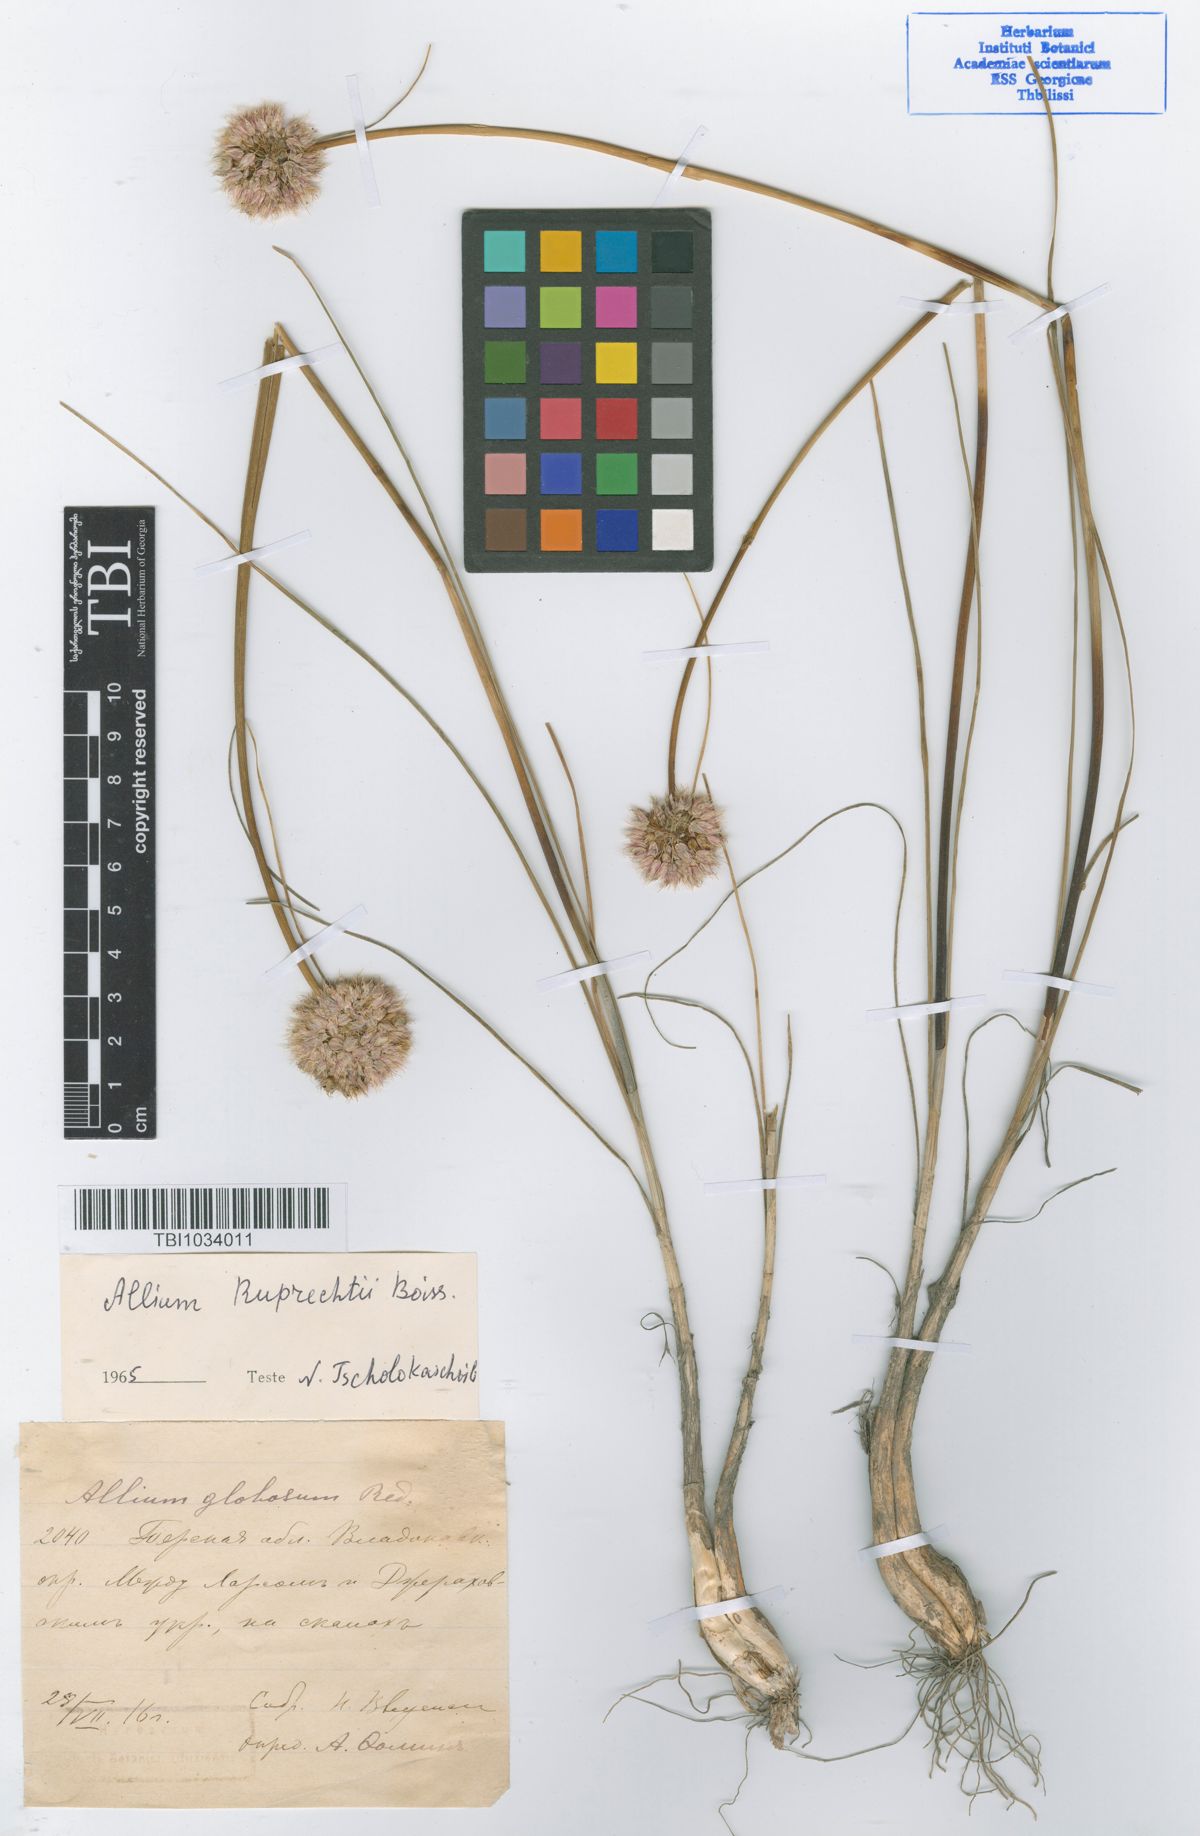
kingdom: Plantae
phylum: Tracheophyta
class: Liliopsida
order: Asparagales
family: Amaryllidaceae
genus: Allium
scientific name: Allium saxatile
